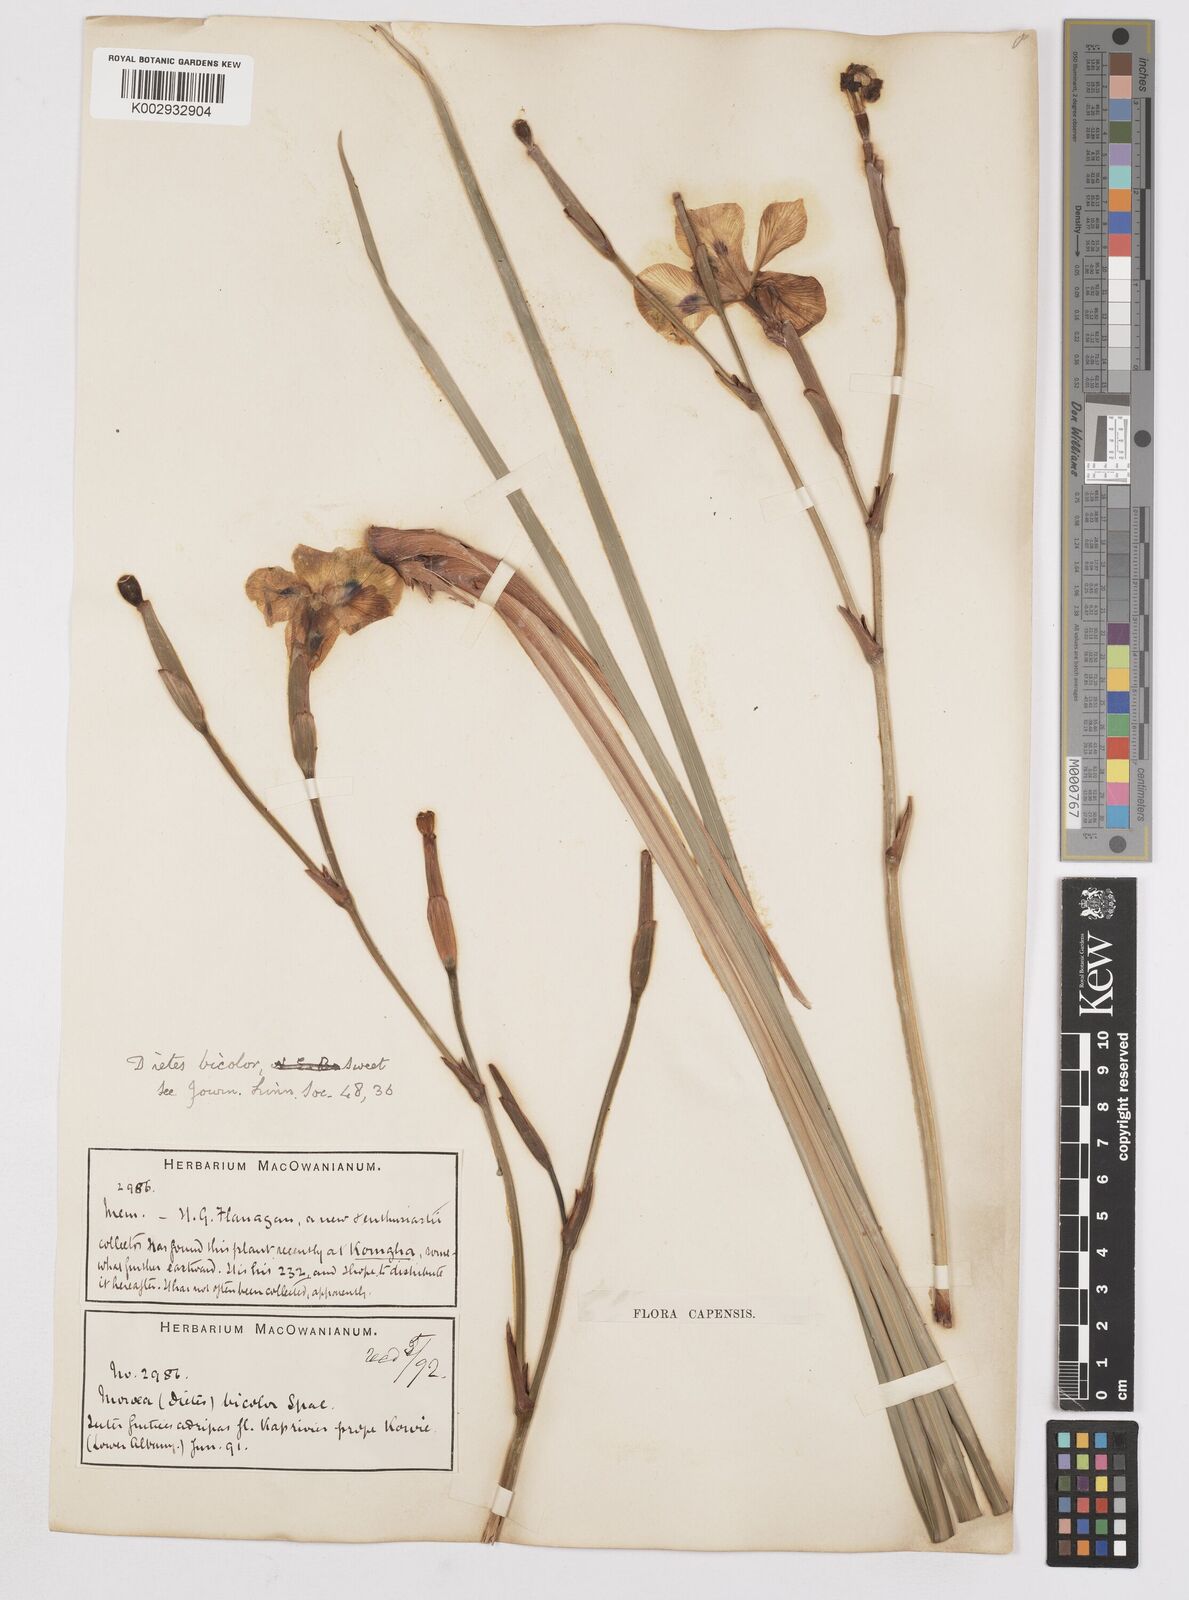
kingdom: Plantae
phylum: Tracheophyta
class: Liliopsida
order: Asparagales
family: Iridaceae
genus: Dietes
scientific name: Dietes bicolor
